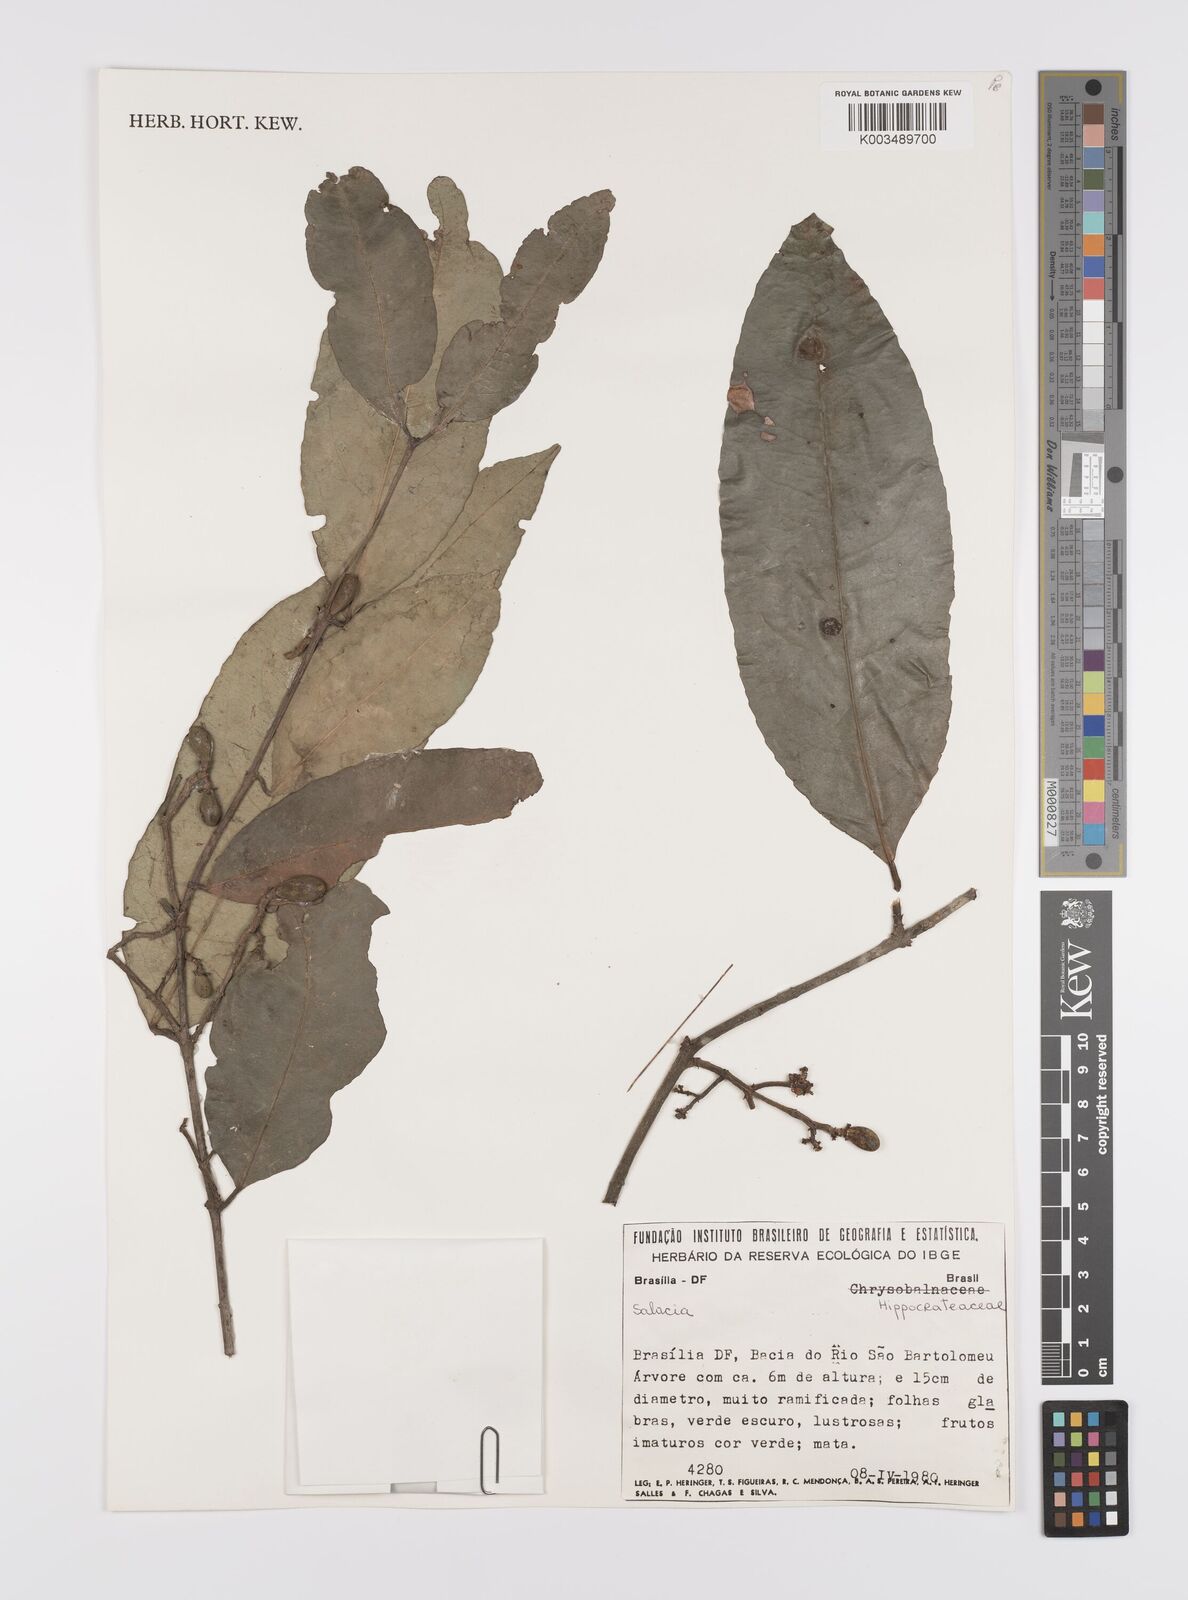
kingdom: Plantae
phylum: Tracheophyta
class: Magnoliopsida
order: Celastrales
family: Celastraceae
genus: Cheiloclinium
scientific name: Cheiloclinium cognatum
